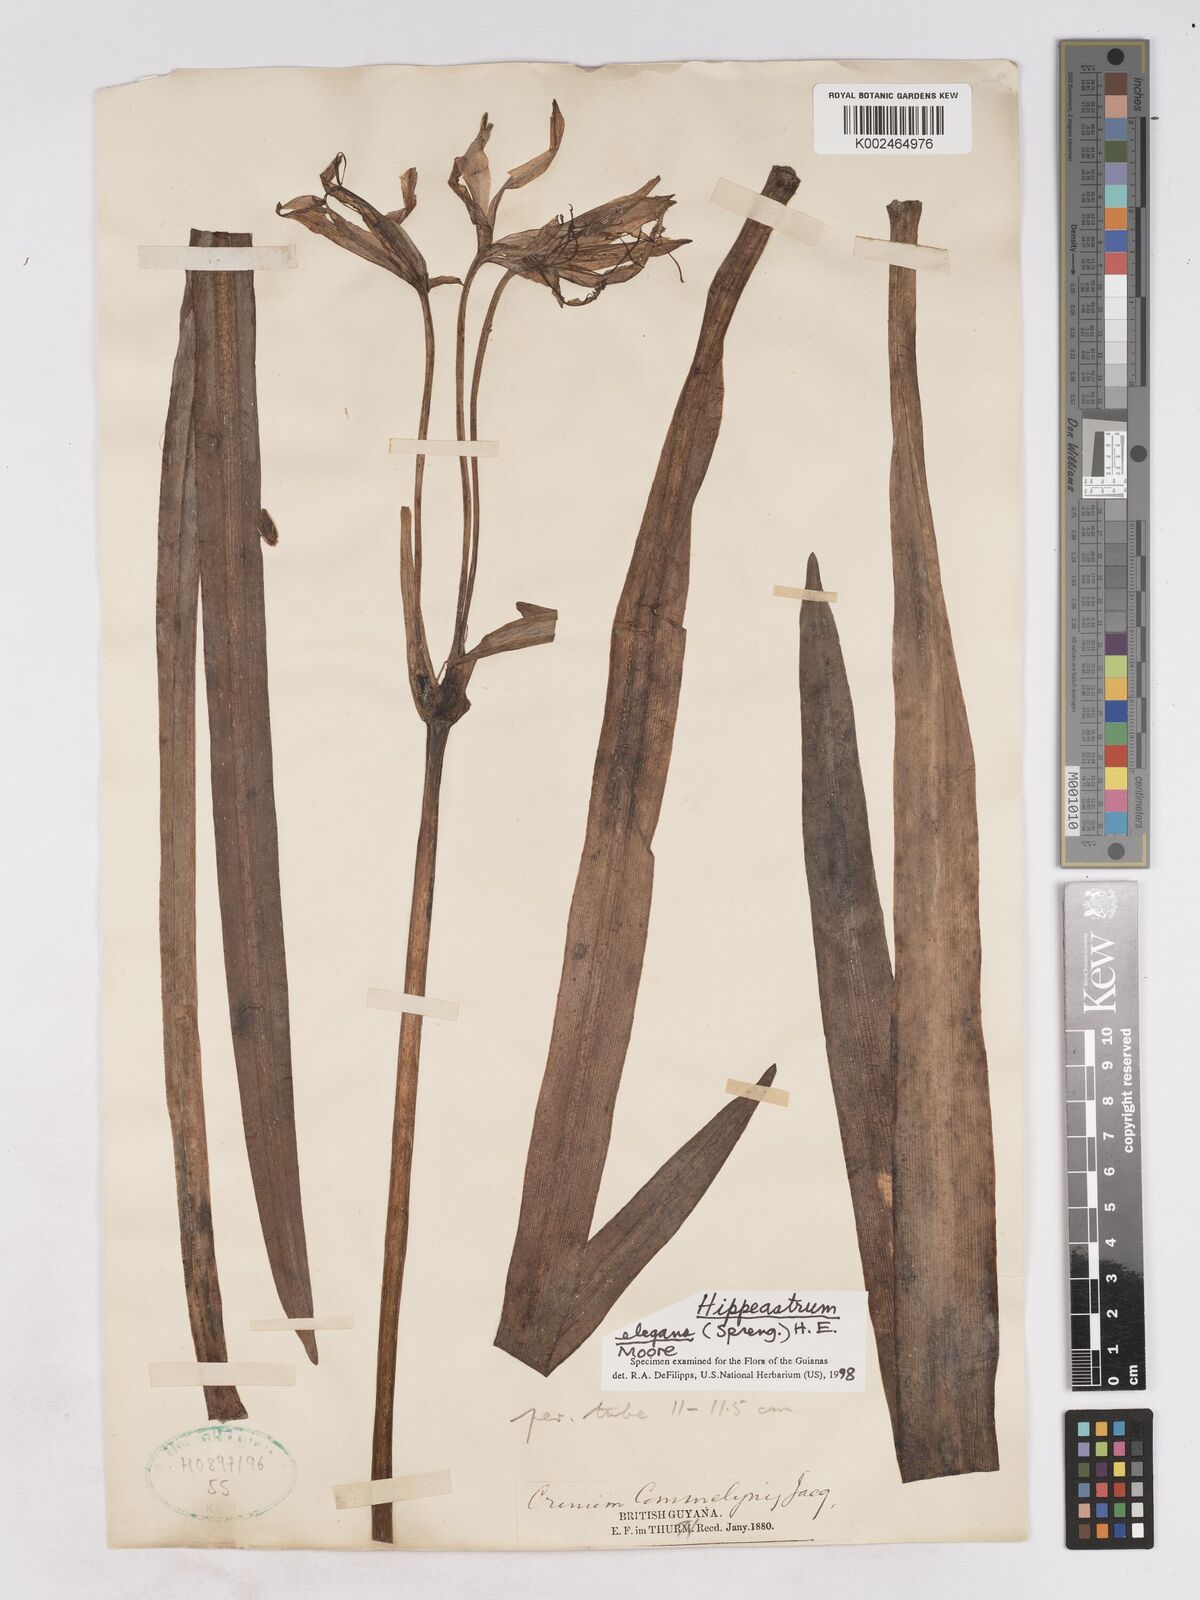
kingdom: Plantae
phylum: Tracheophyta
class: Liliopsida
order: Asparagales
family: Amaryllidaceae
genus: Hippeastrum
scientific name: Hippeastrum elegans
